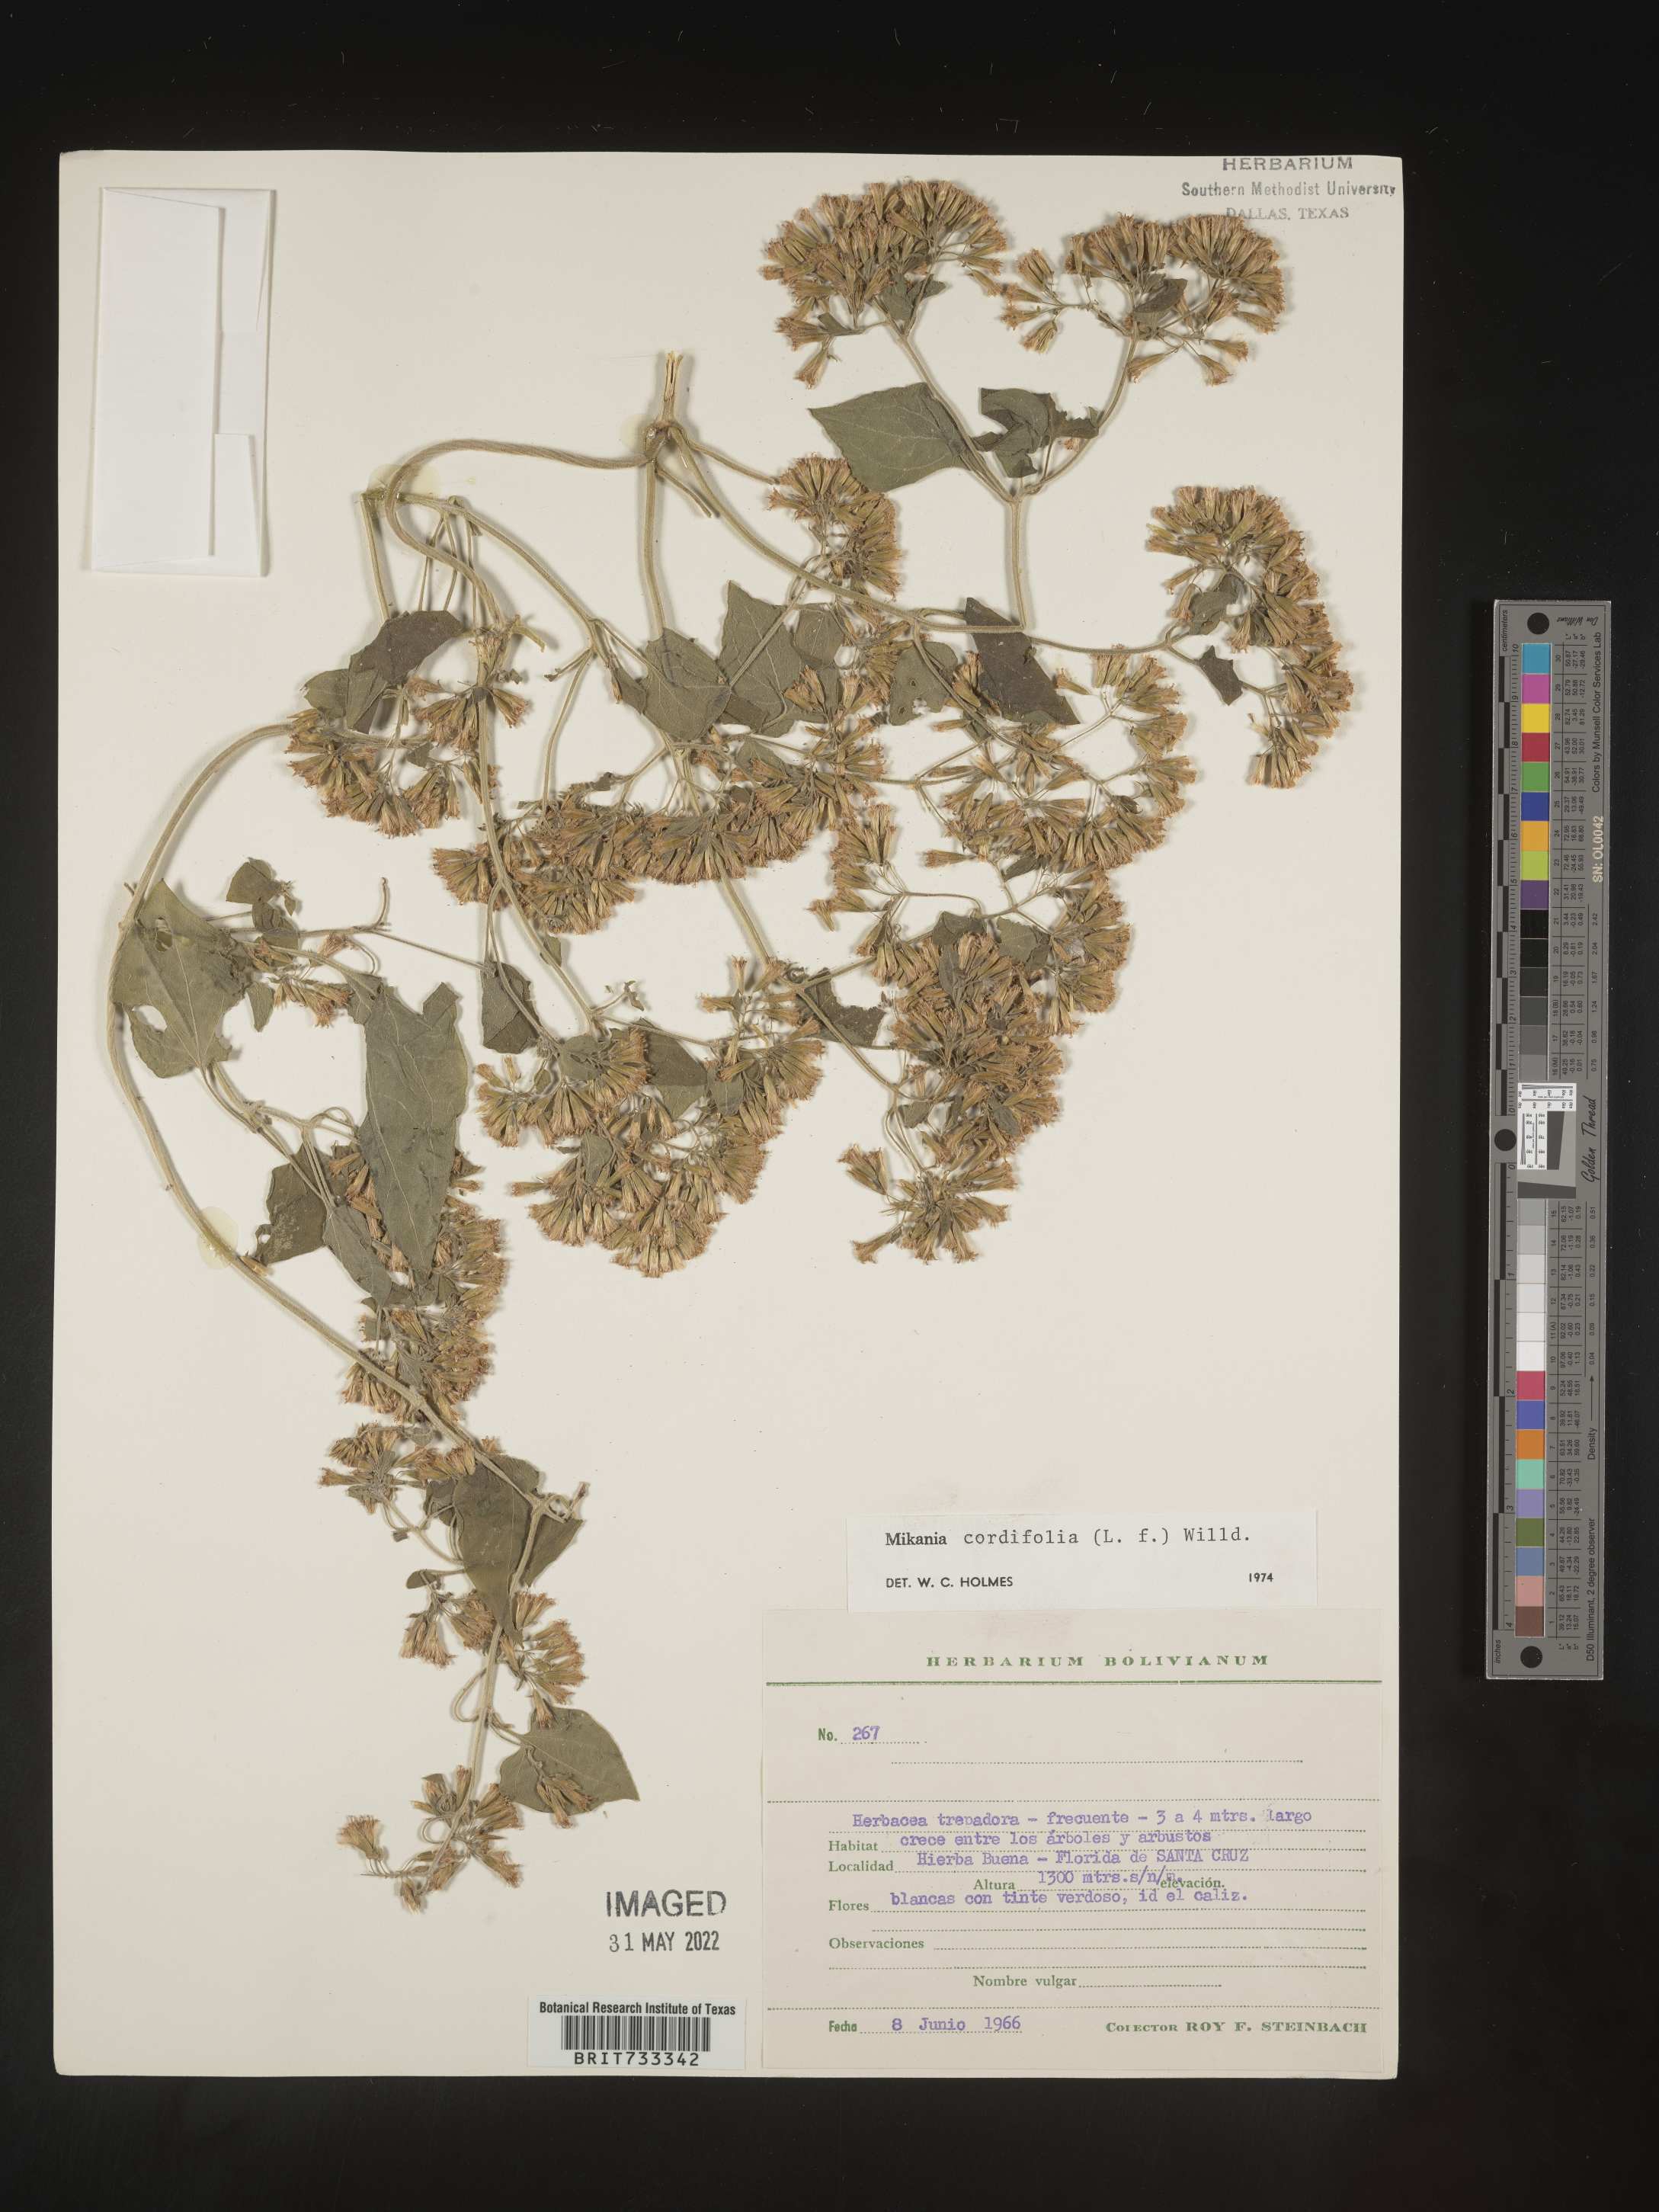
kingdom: Plantae
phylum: Tracheophyta
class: Magnoliopsida
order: Asterales
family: Asteraceae
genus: Mikania
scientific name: Mikania
